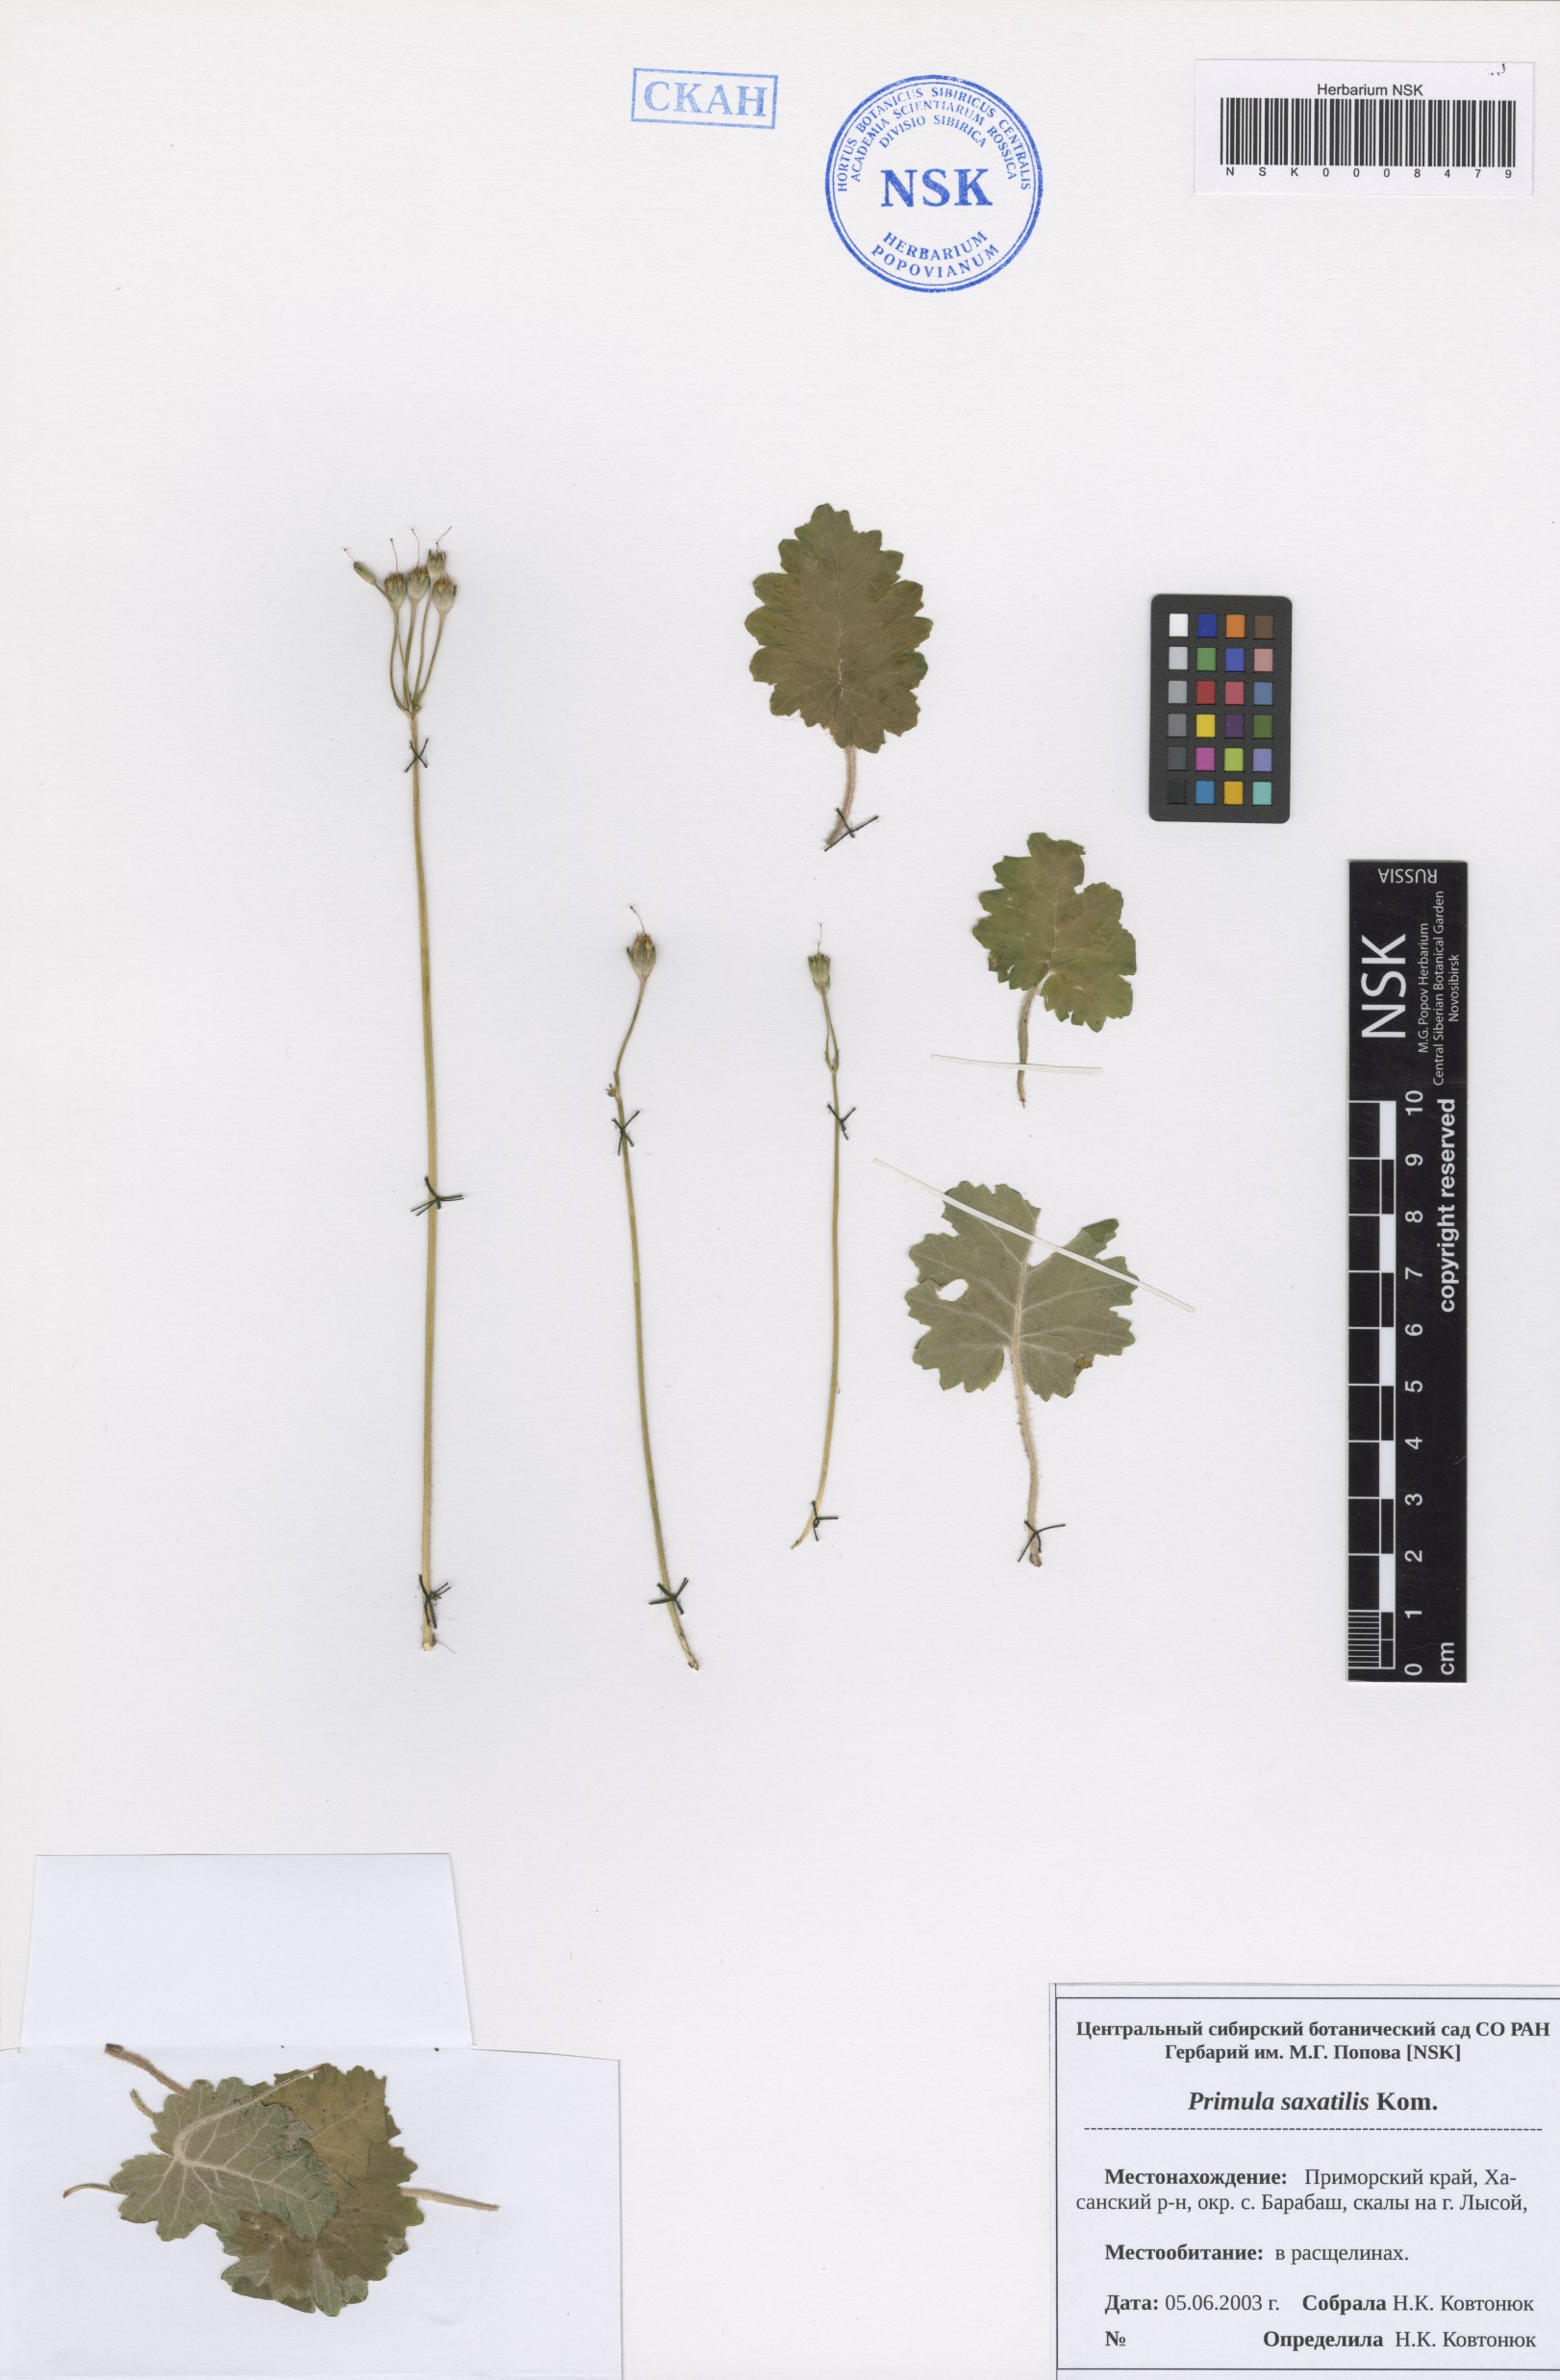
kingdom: Plantae
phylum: Tracheophyta
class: Magnoliopsida
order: Ericales
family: Primulaceae
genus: Primula
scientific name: Primula saxatilis
